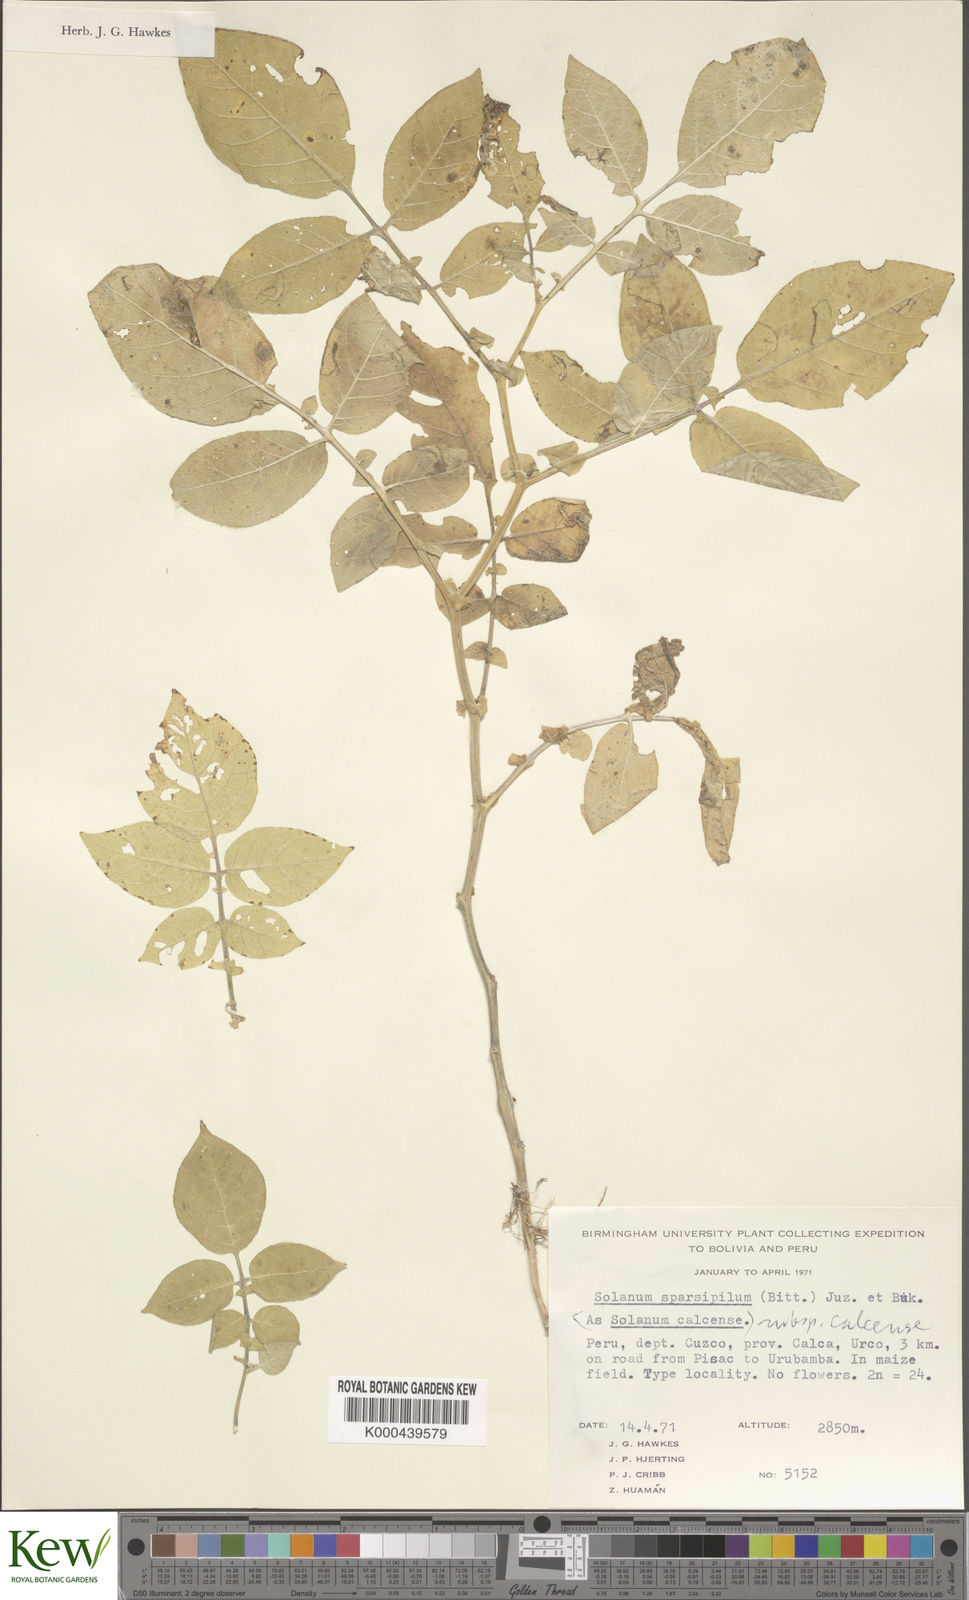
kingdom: Plantae
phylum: Tracheophyta
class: Magnoliopsida
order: Solanales
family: Solanaceae
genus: Solanum
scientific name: Solanum brevicaule
